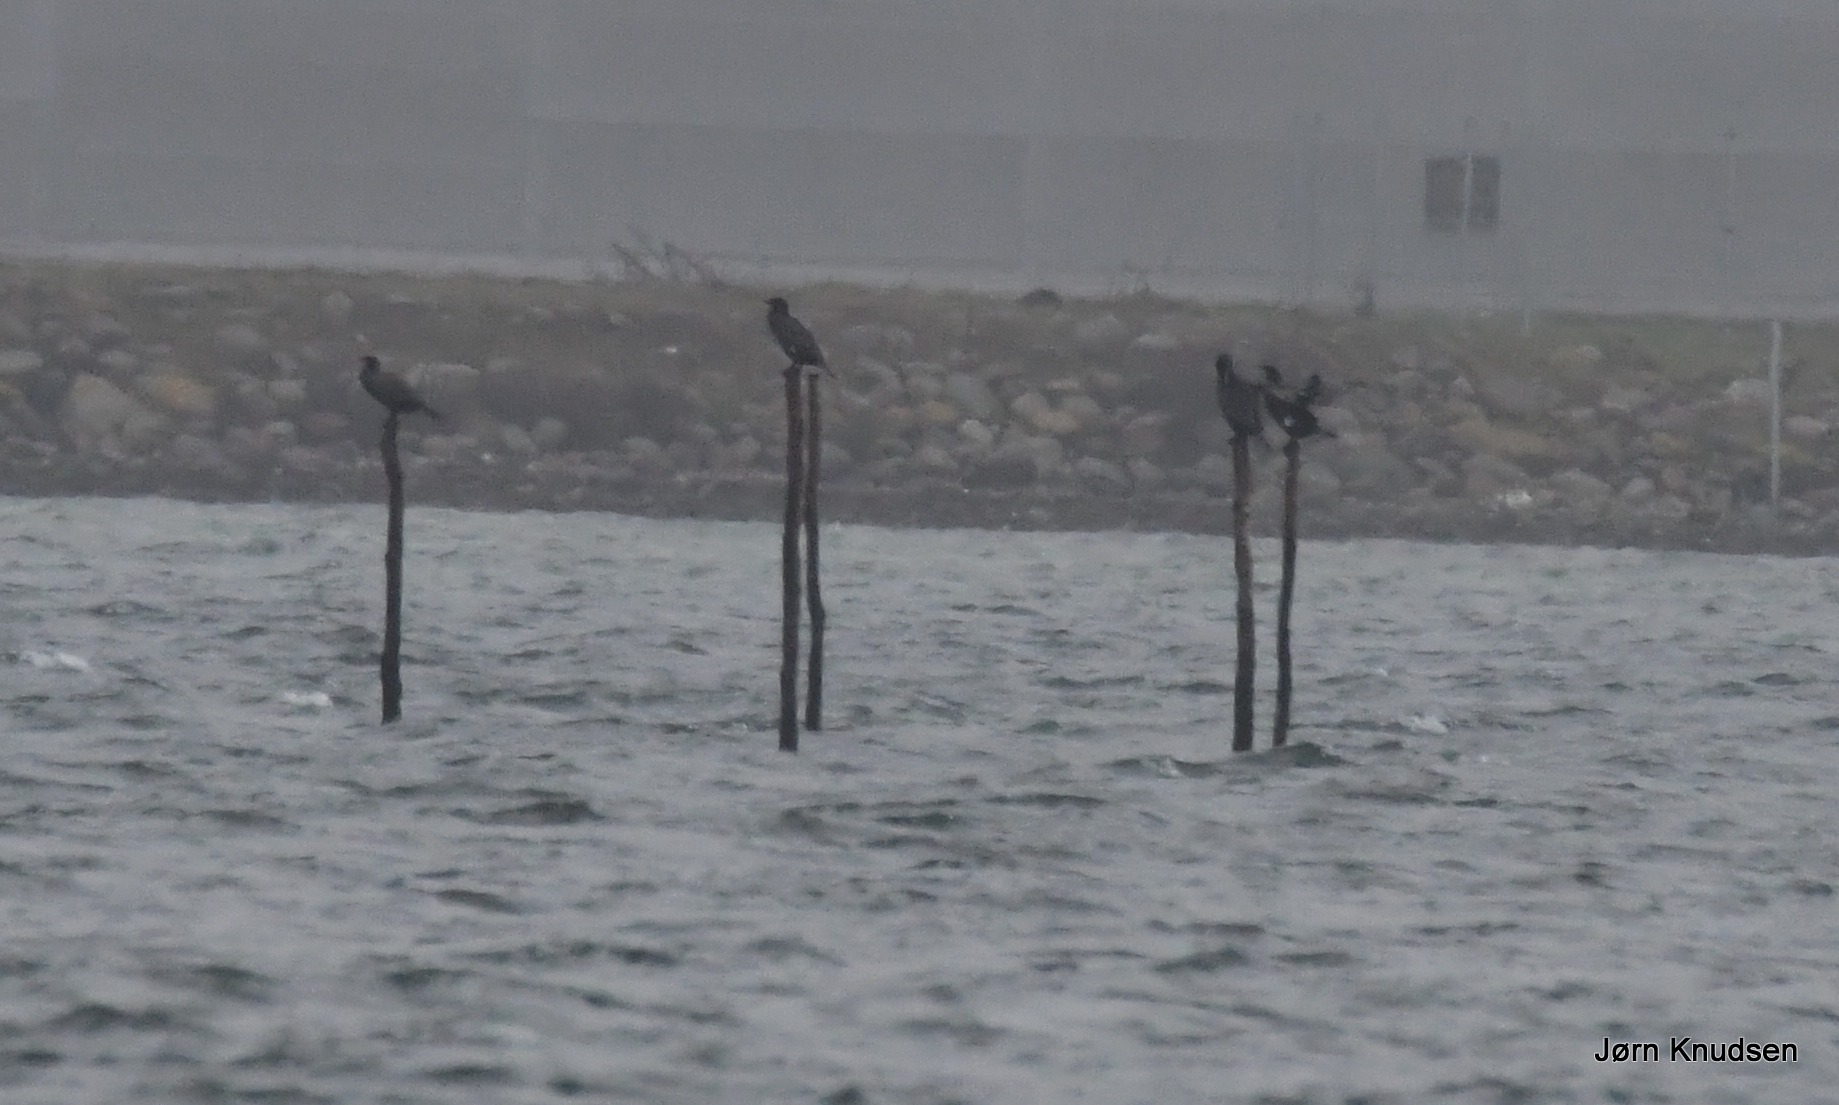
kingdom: Animalia
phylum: Chordata
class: Aves
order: Suliformes
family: Phalacrocoracidae
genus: Phalacrocorax
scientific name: Phalacrocorax carbo
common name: Skarv
